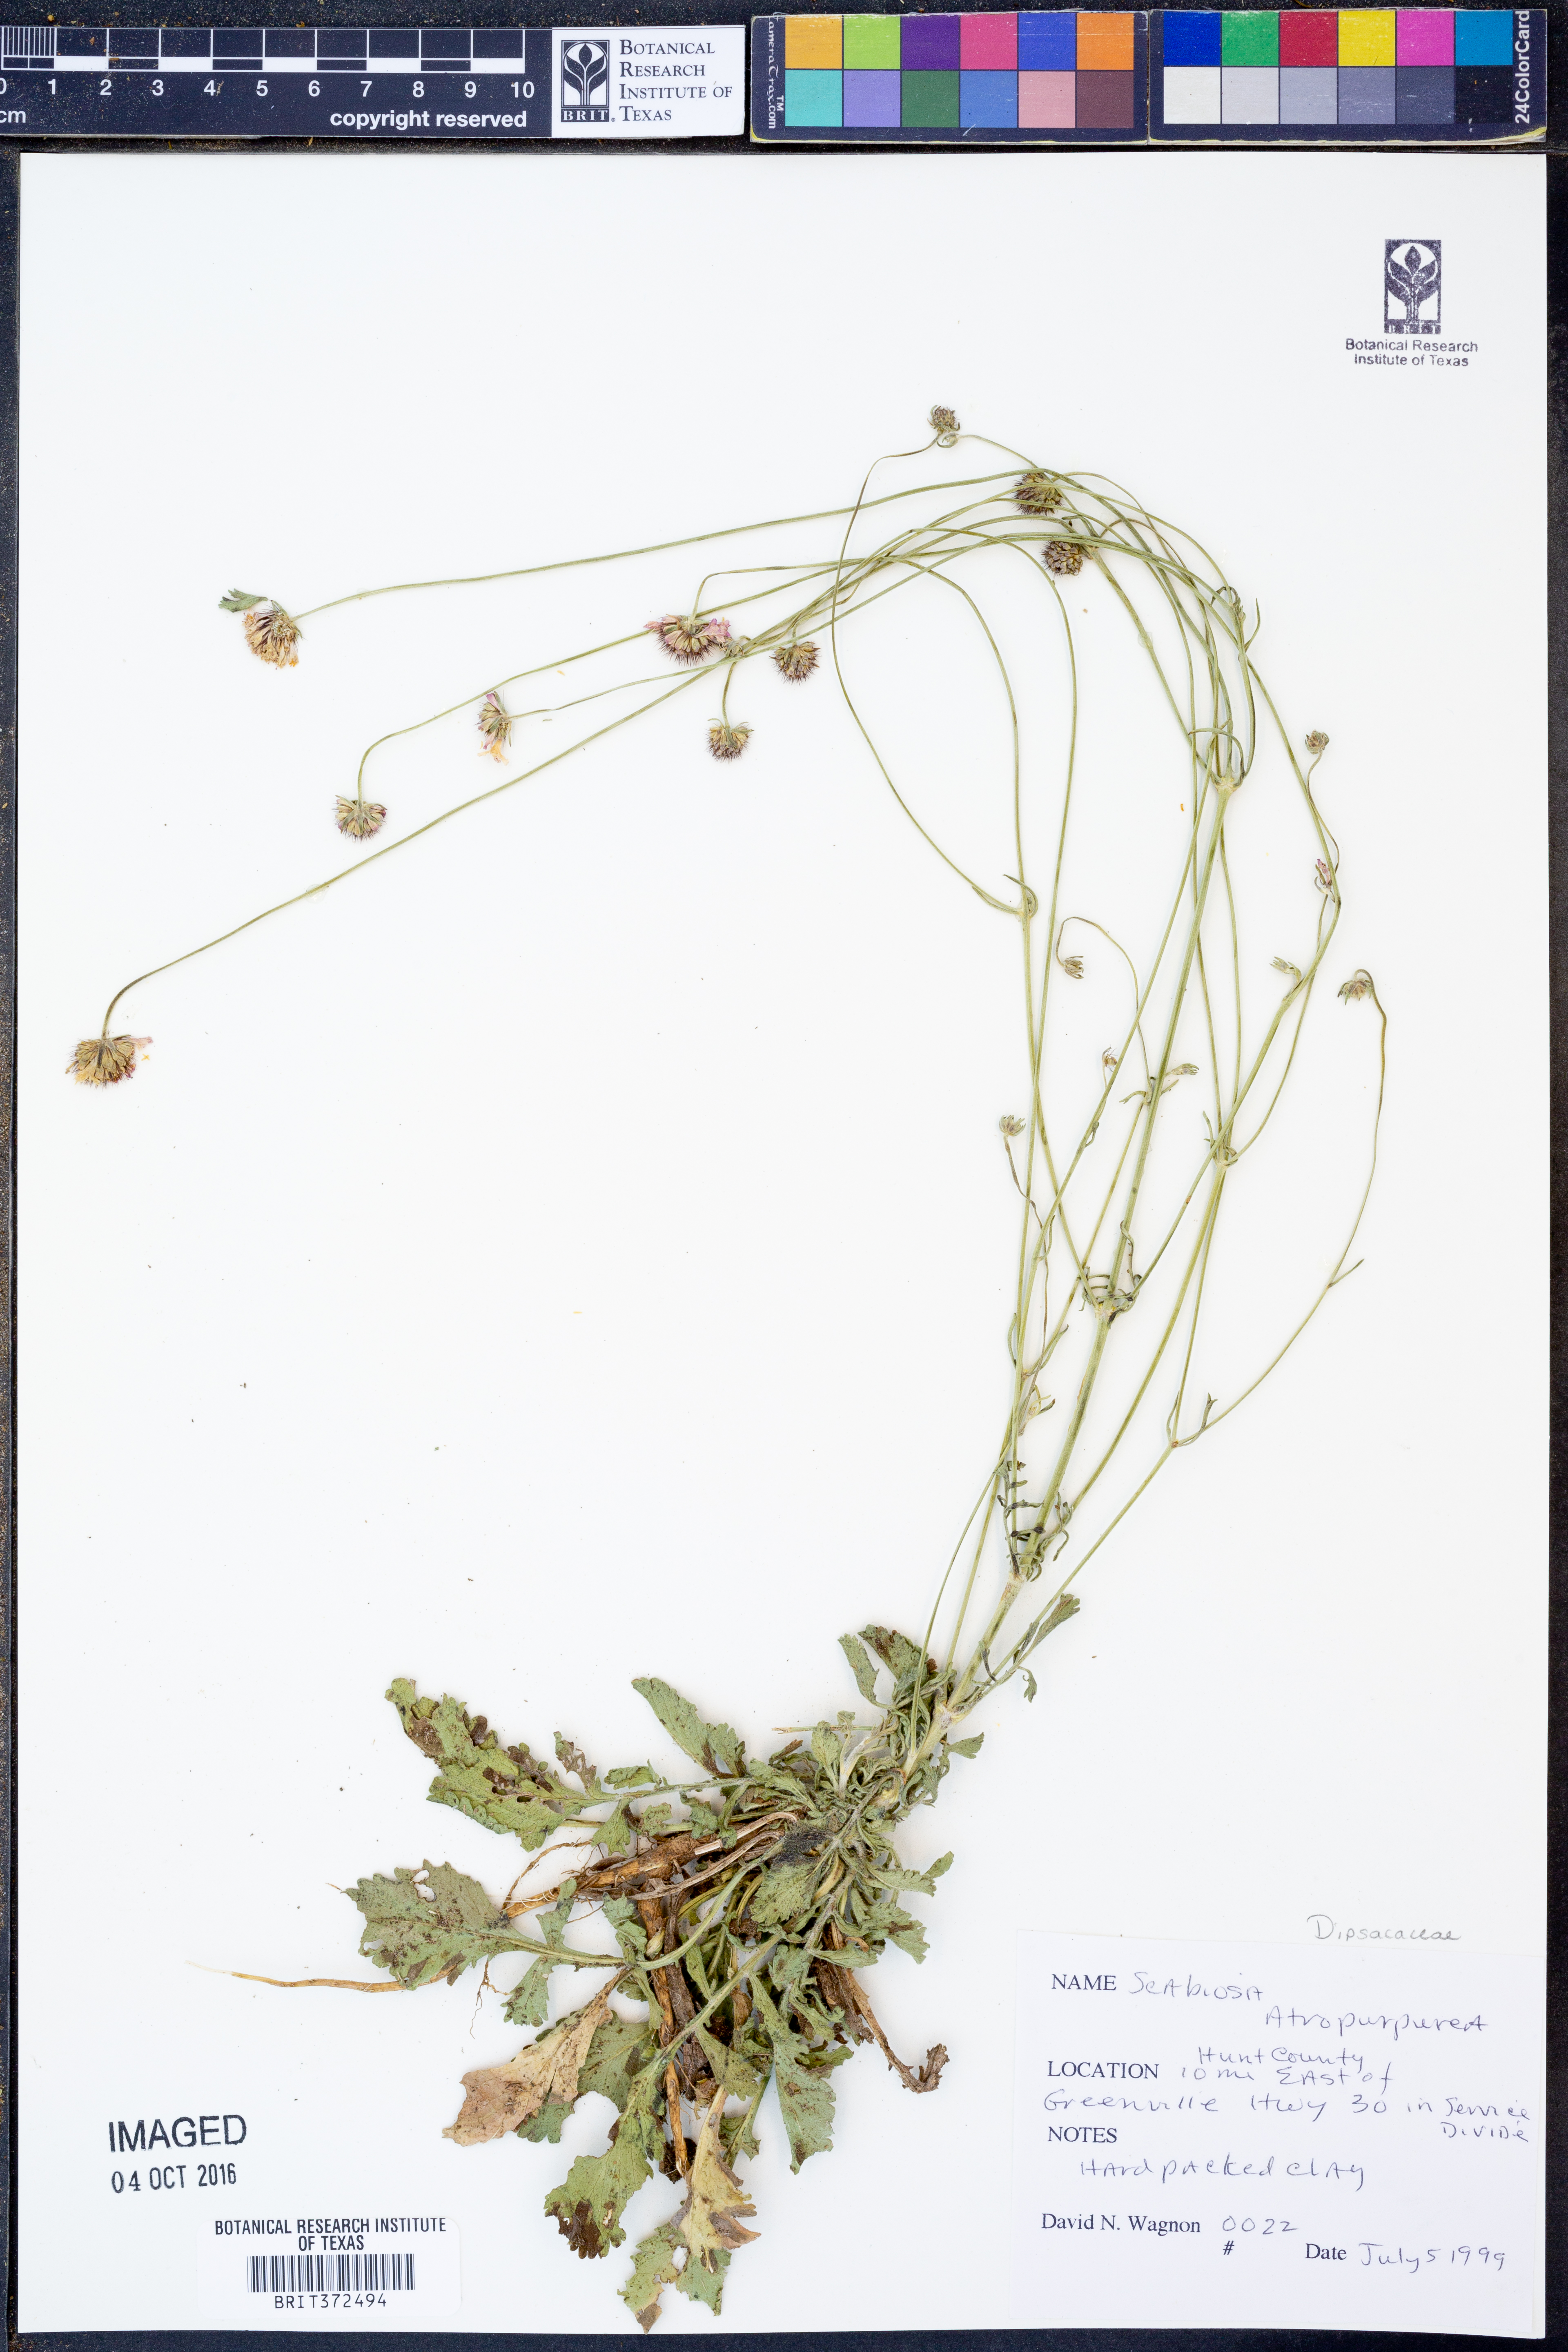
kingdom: Plantae
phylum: Tracheophyta
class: Magnoliopsida
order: Dipsacales
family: Caprifoliaceae
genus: Sixalix
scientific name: Sixalix atropurpurea
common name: Sweet scabious
